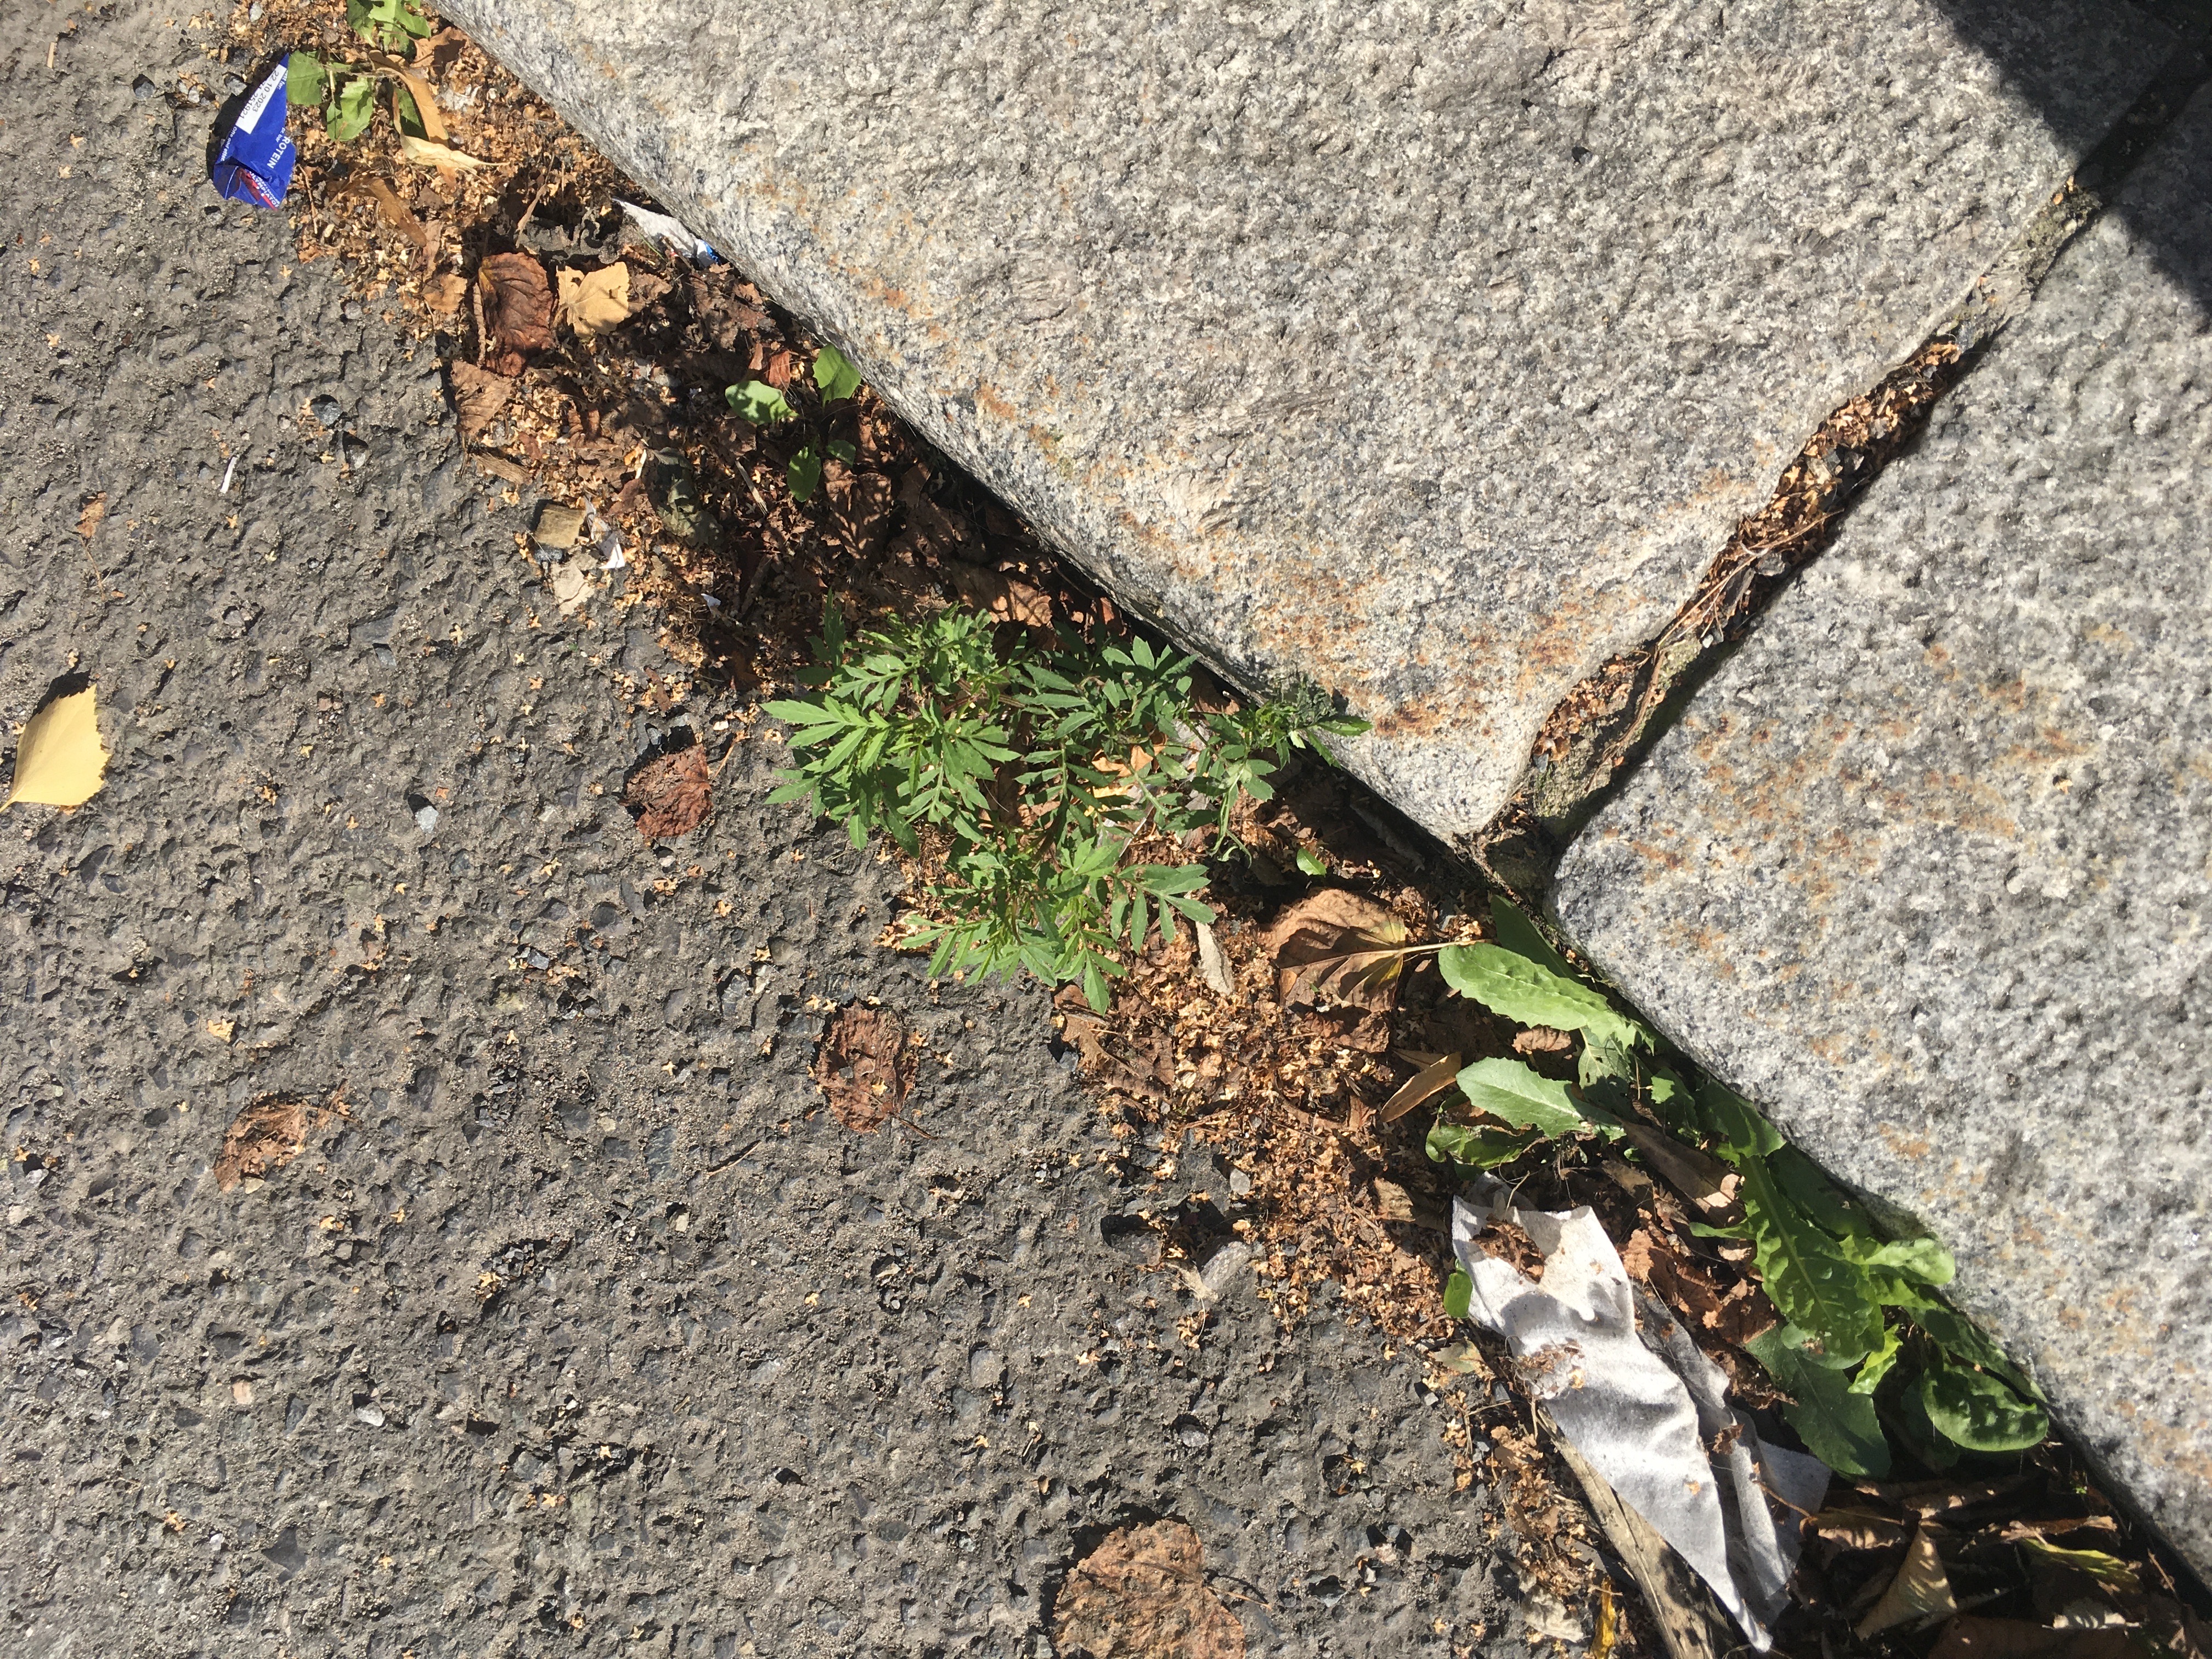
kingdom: Plantae
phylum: Tracheophyta
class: Magnoliopsida
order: Asterales
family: Asteraceae
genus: Tagetes
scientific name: Tagetes erecta
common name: sprikefløyelsblom
